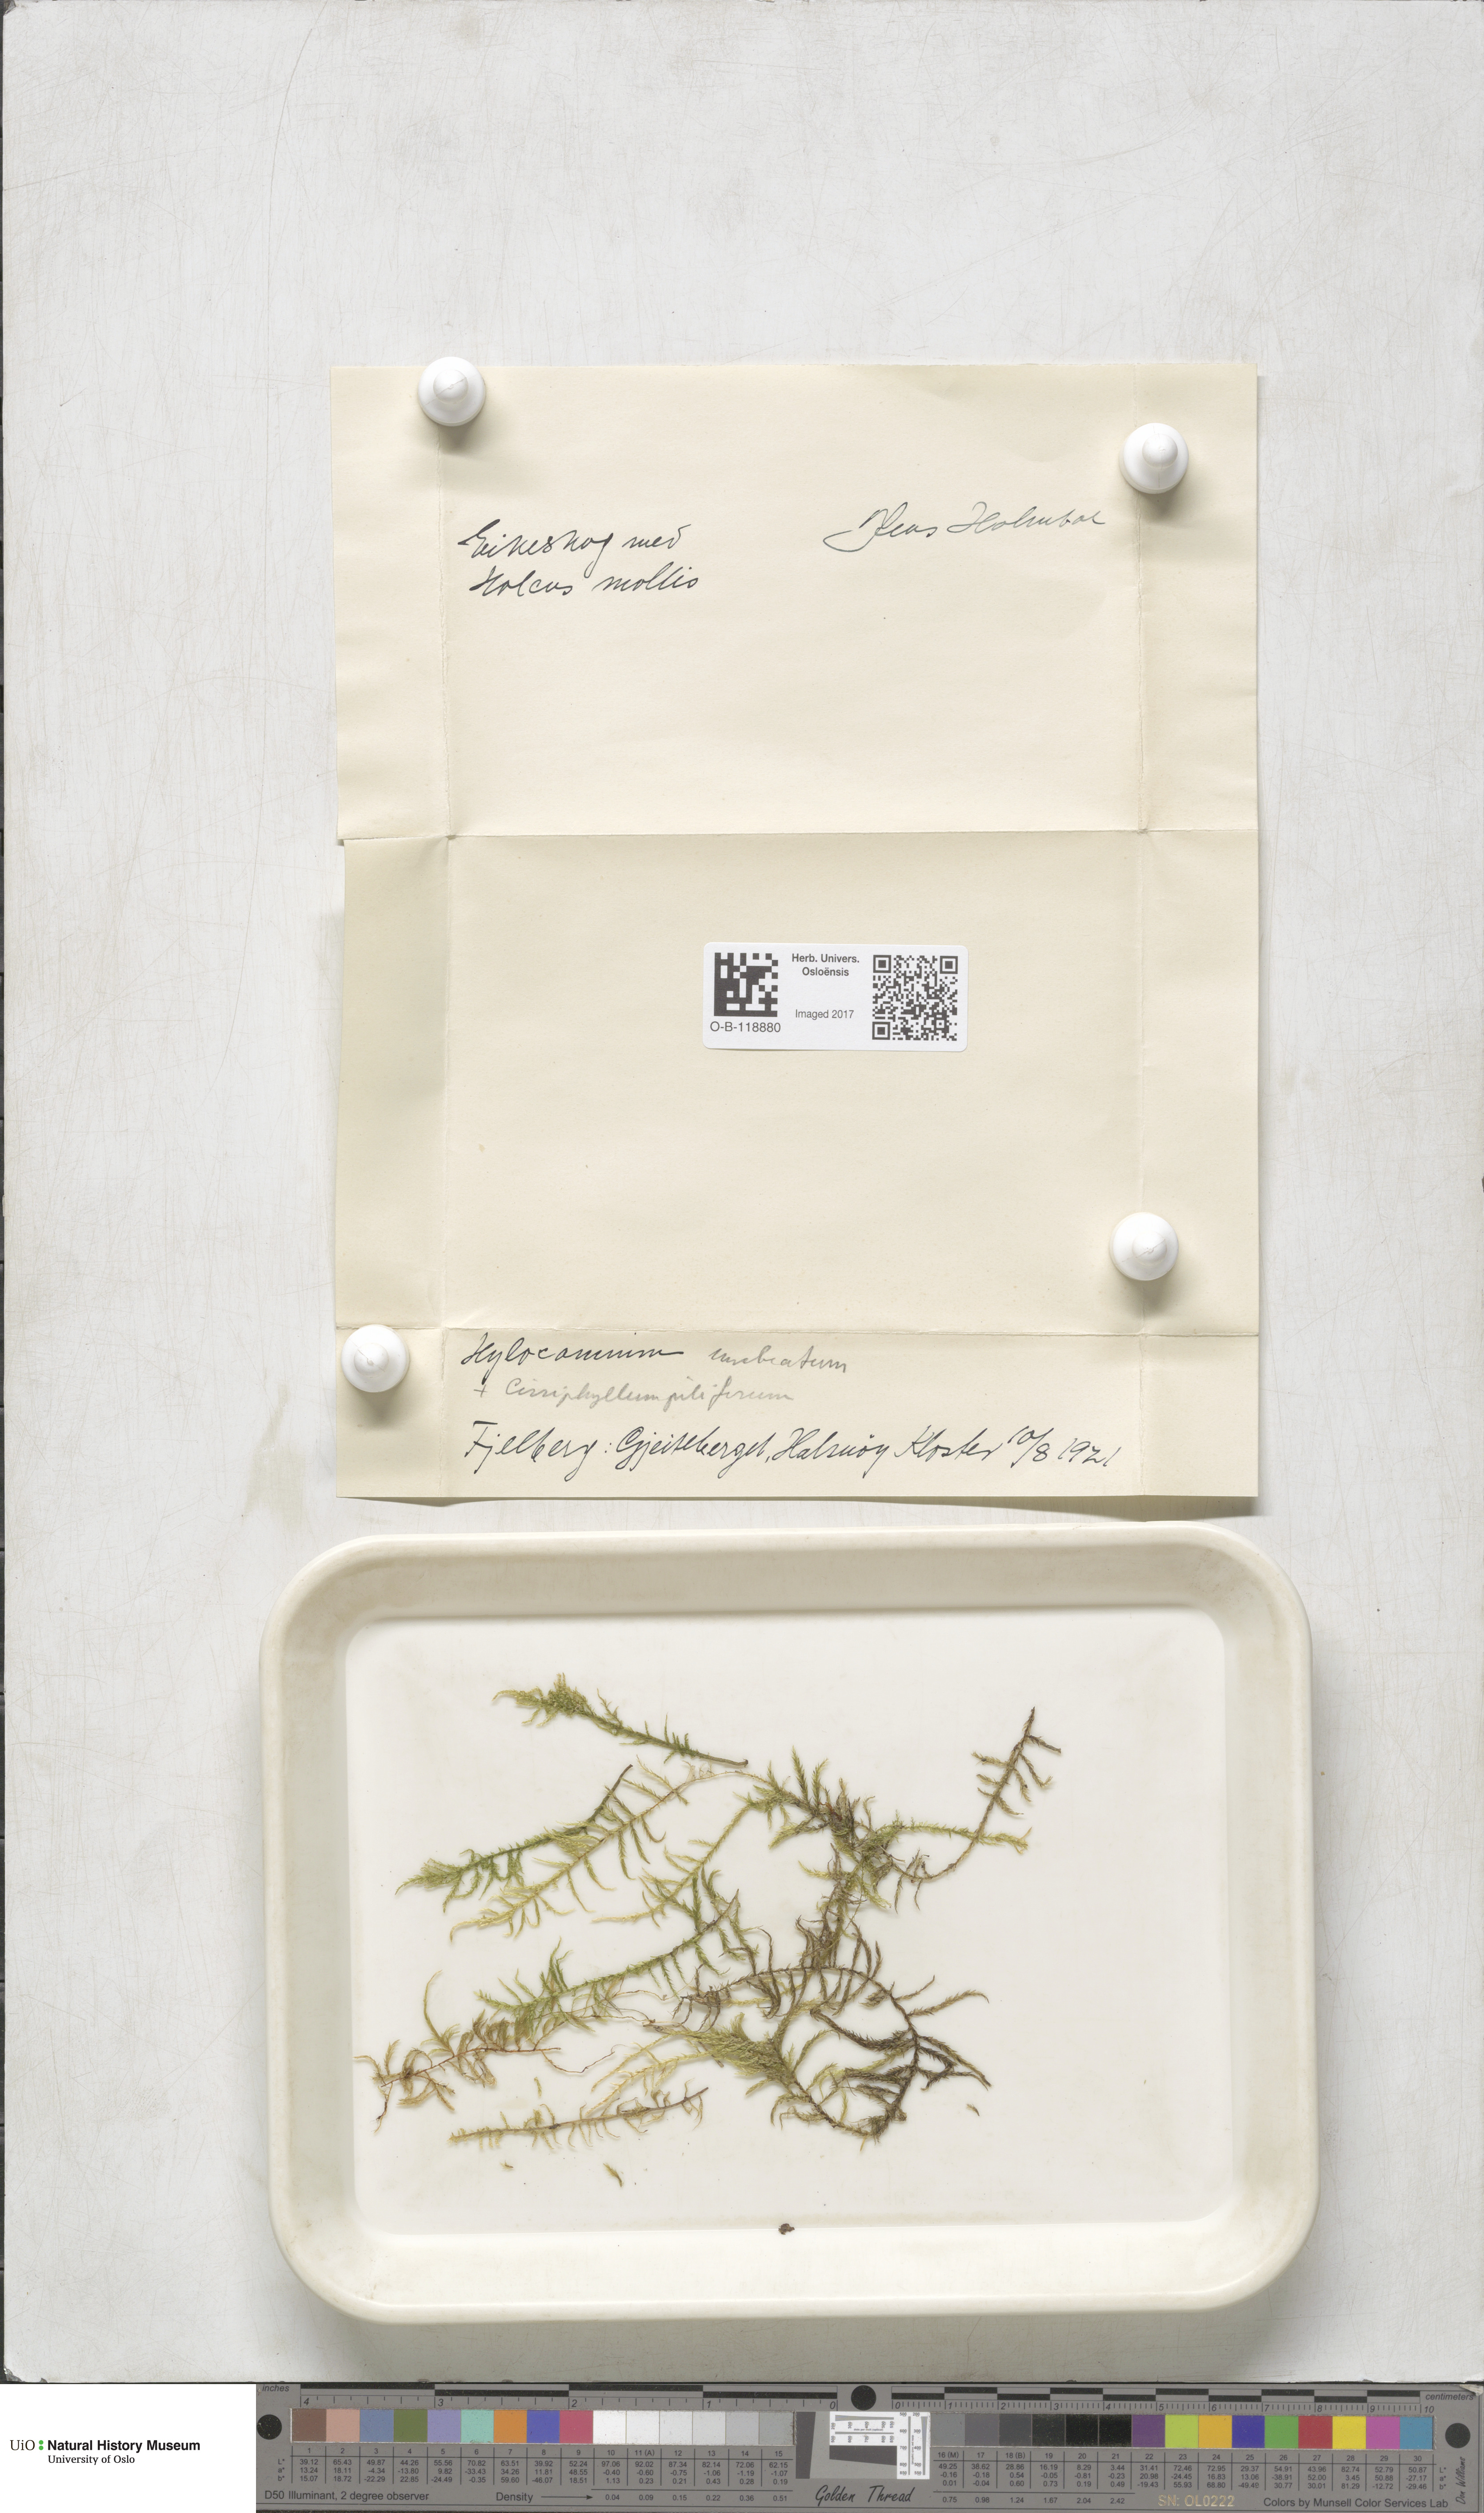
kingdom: Plantae
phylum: Bryophyta
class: Bryopsida
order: Hypnales
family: Hylocomiaceae
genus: Hylocomiastrum
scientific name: Hylocomiastrum umbratum
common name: Shaded woods moss
